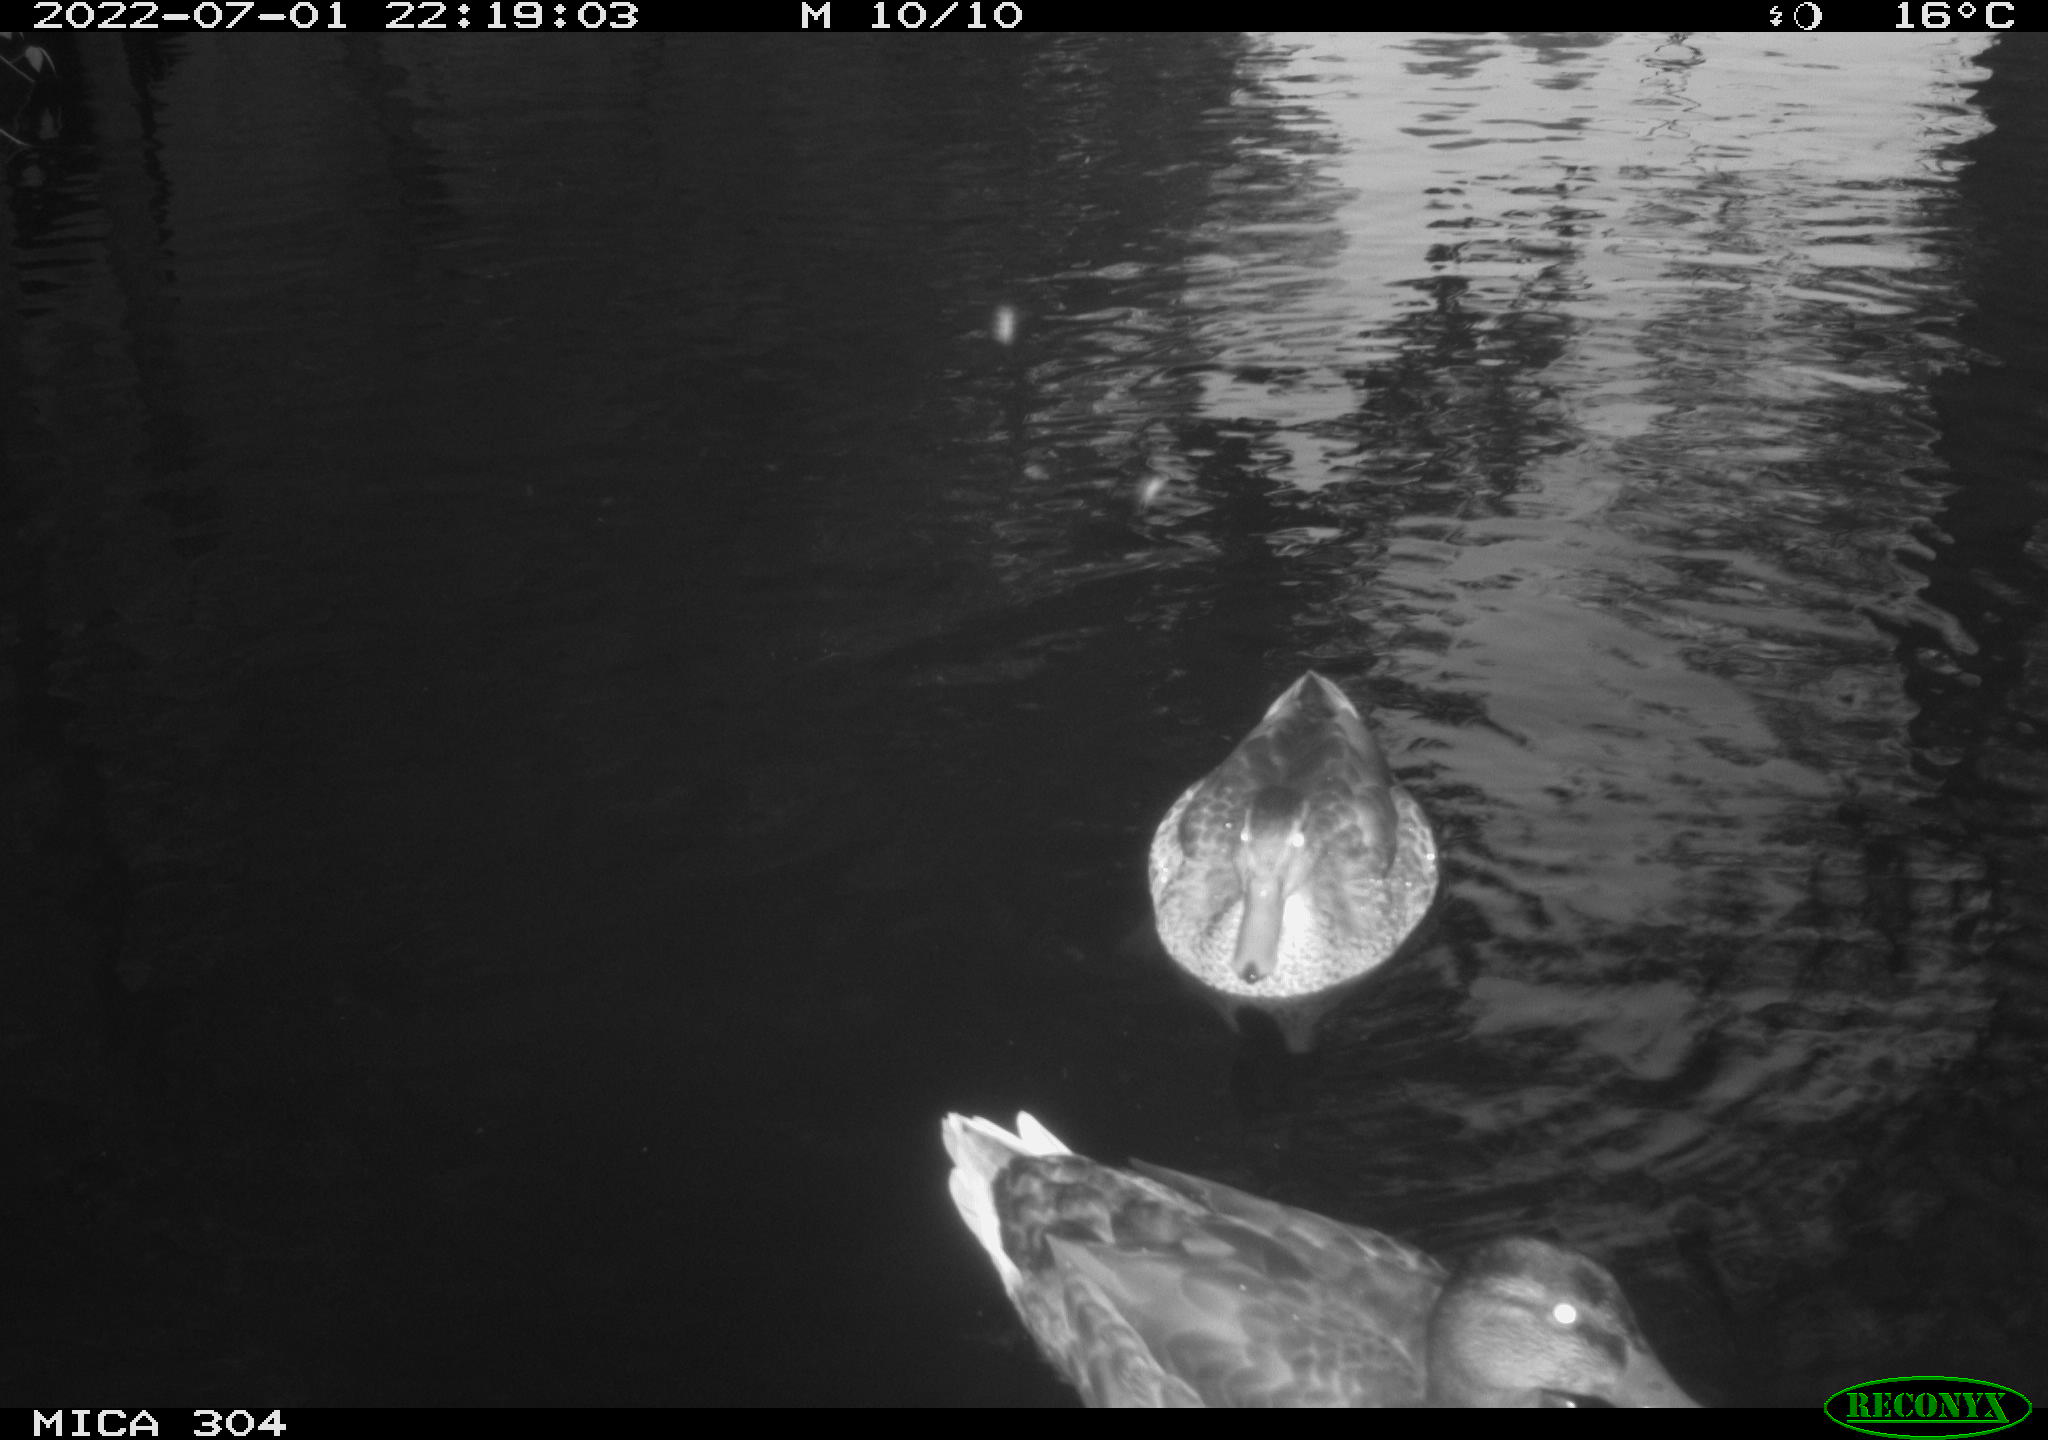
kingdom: Animalia
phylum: Chordata
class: Aves
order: Anseriformes
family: Anatidae
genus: Anas
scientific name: Anas platyrhynchos
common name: Mallard
